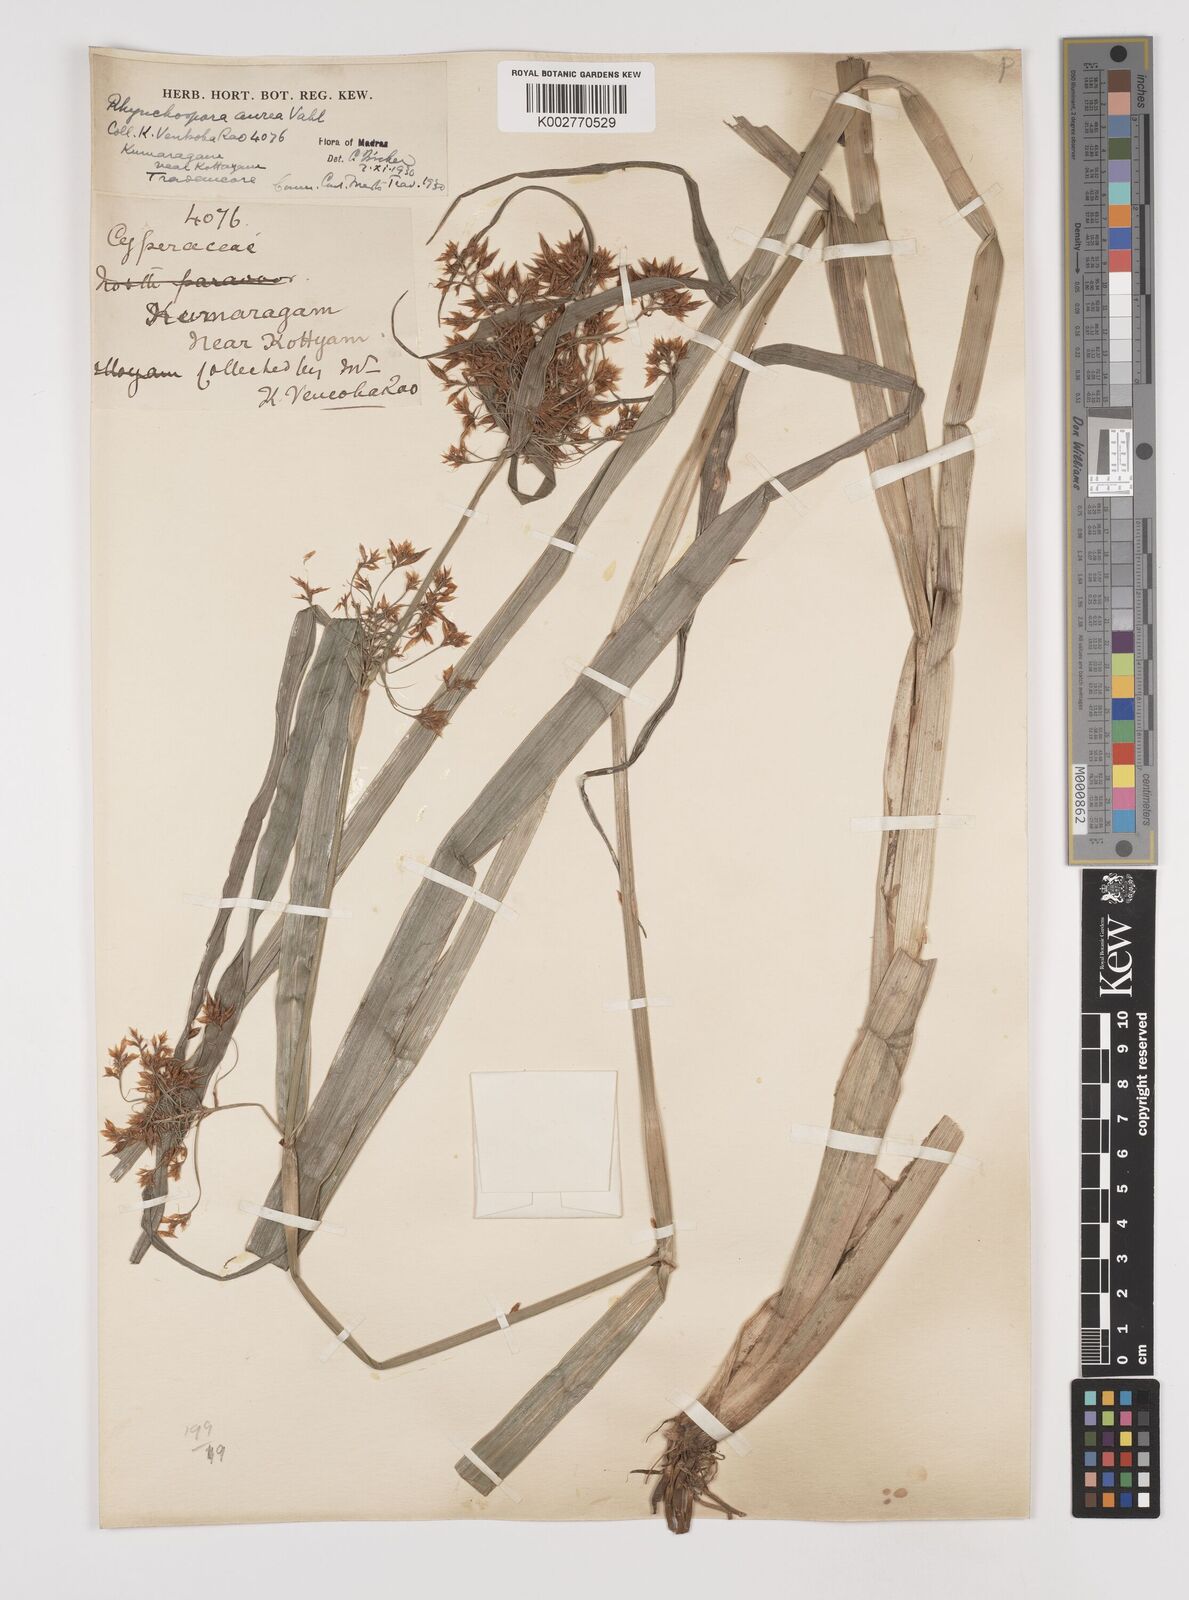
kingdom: Plantae
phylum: Tracheophyta
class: Liliopsida
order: Poales
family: Cyperaceae
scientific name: Cyperaceae
